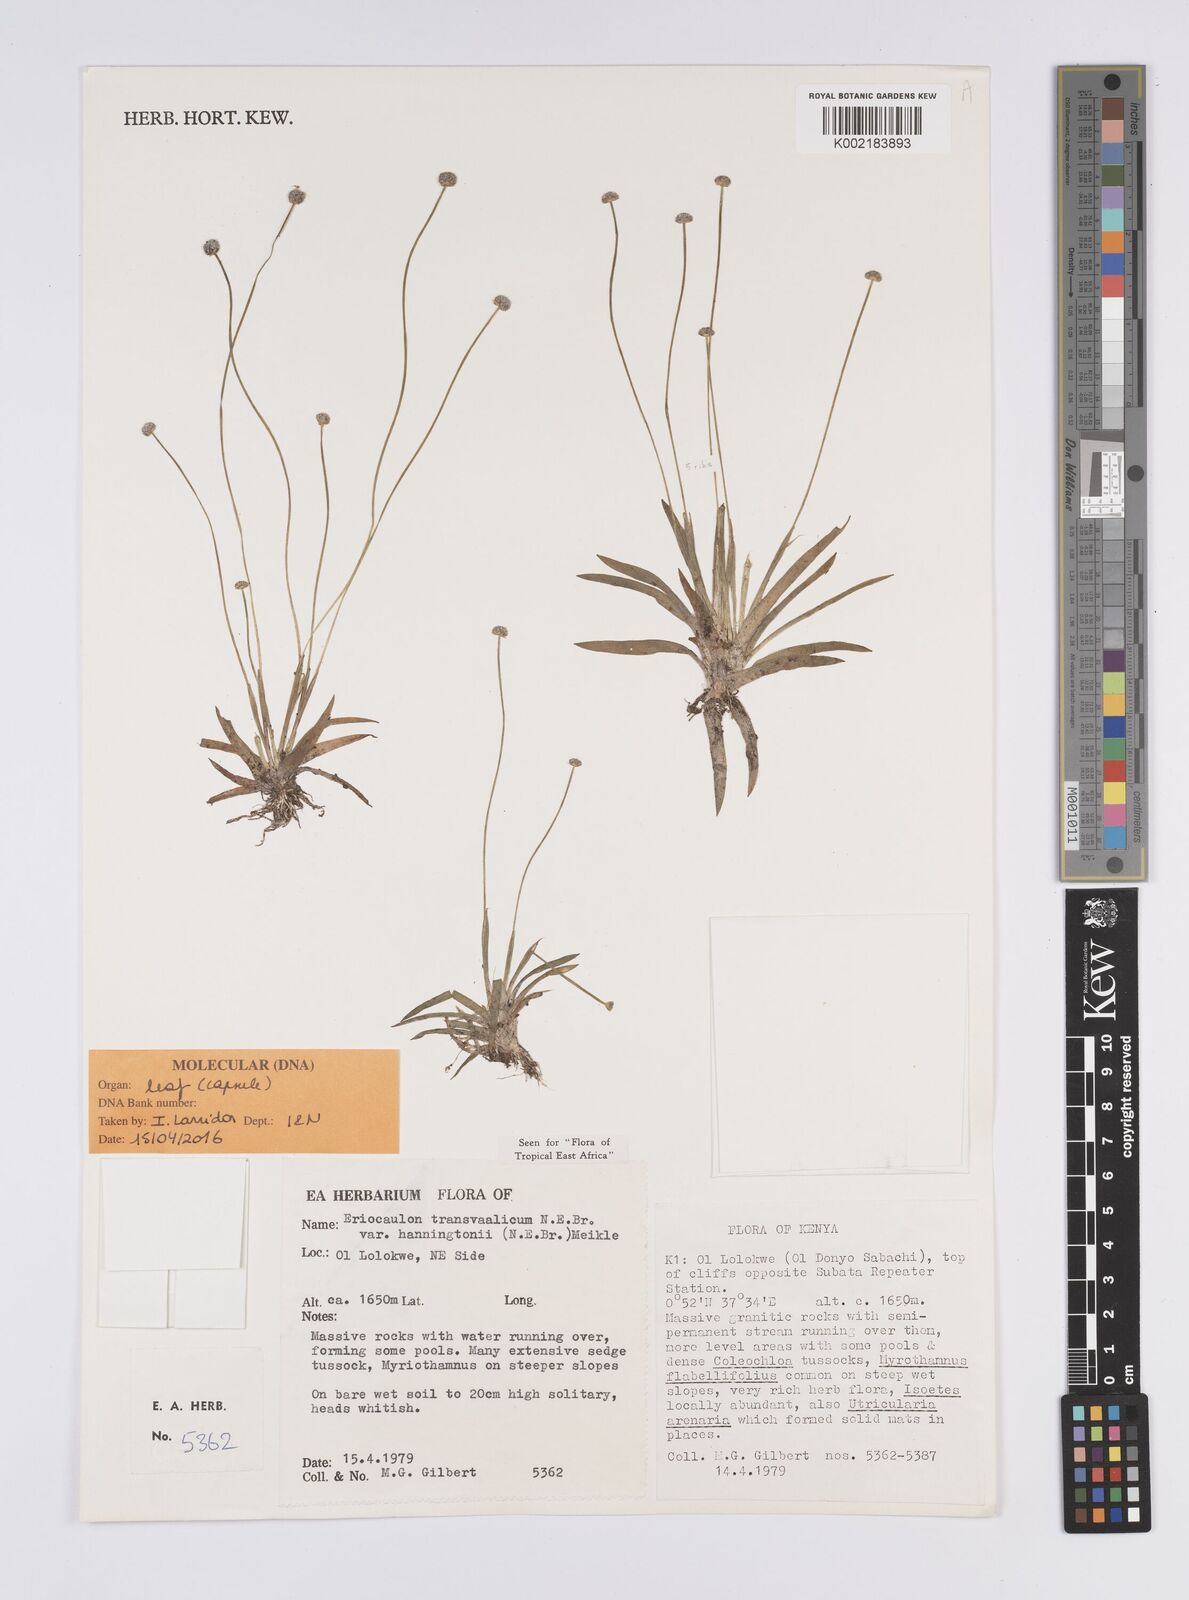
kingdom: Plantae
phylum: Tracheophyta
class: Liliopsida
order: Poales
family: Eriocaulaceae
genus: Eriocaulon
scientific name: Eriocaulon transvaalicum
